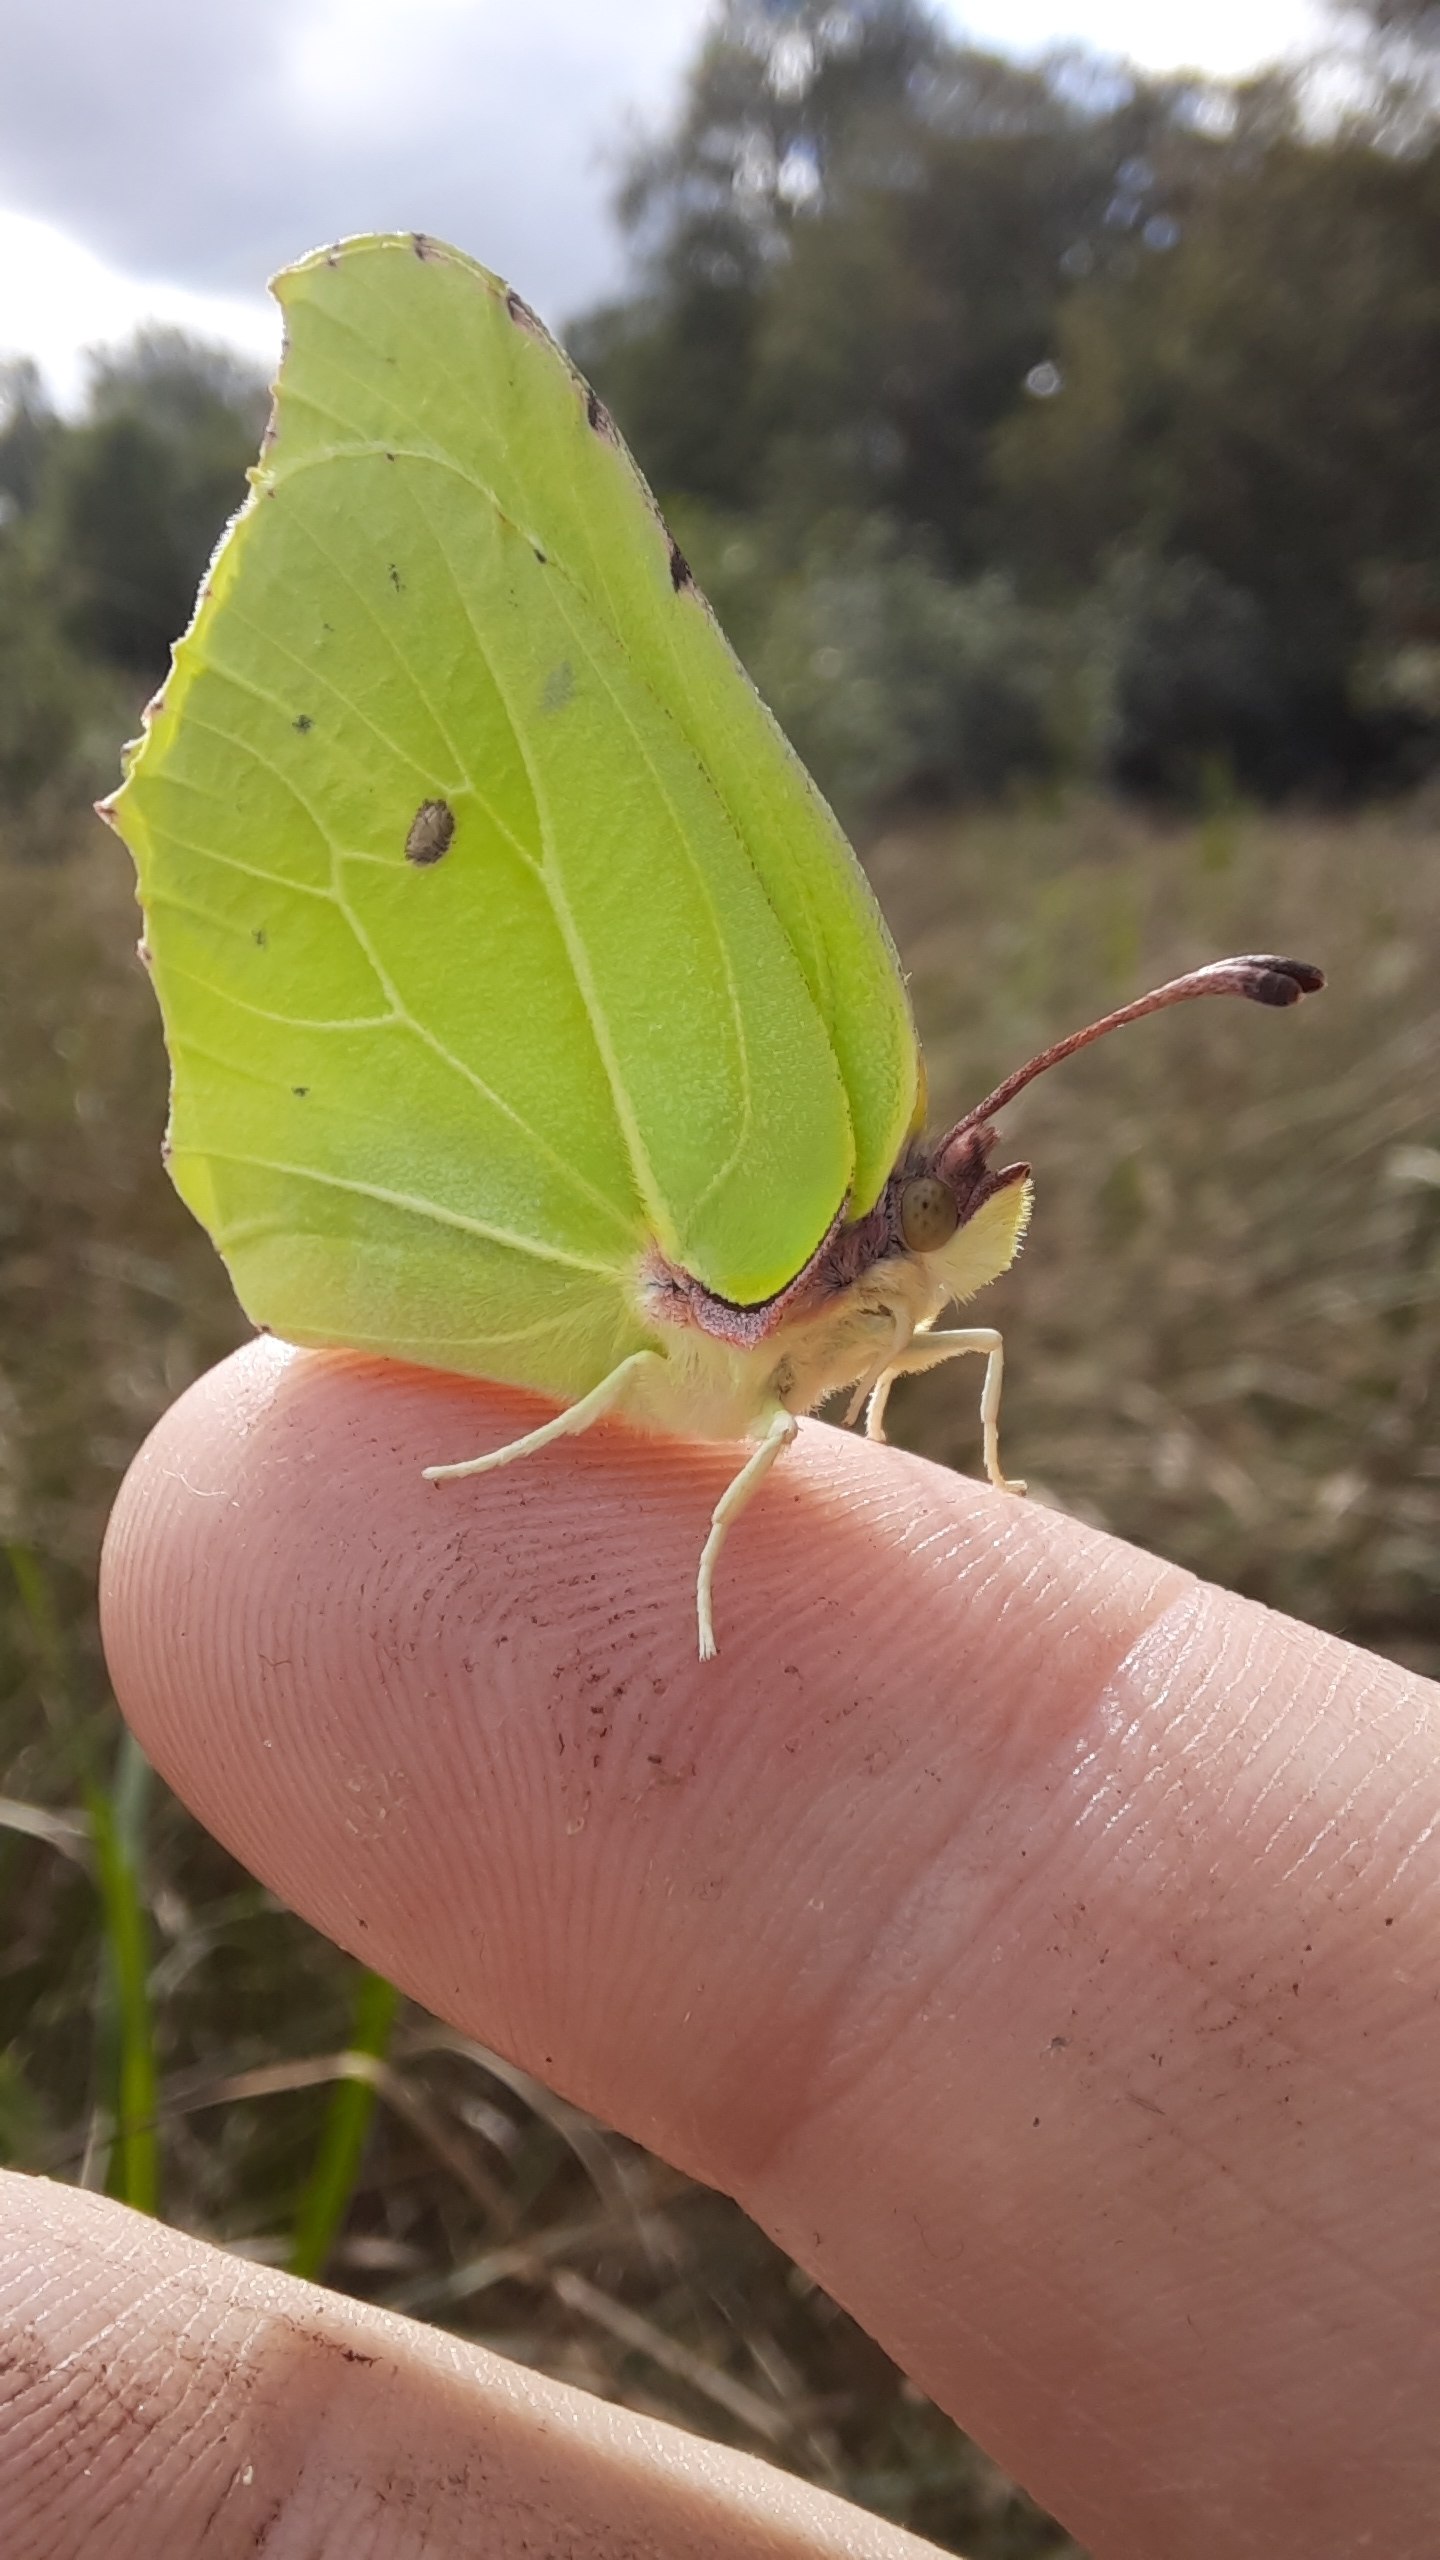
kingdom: Animalia
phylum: Arthropoda
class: Insecta
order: Lepidoptera
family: Pieridae
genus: Gonepteryx
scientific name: Gonepteryx rhamni
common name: Citronsommerfugl
